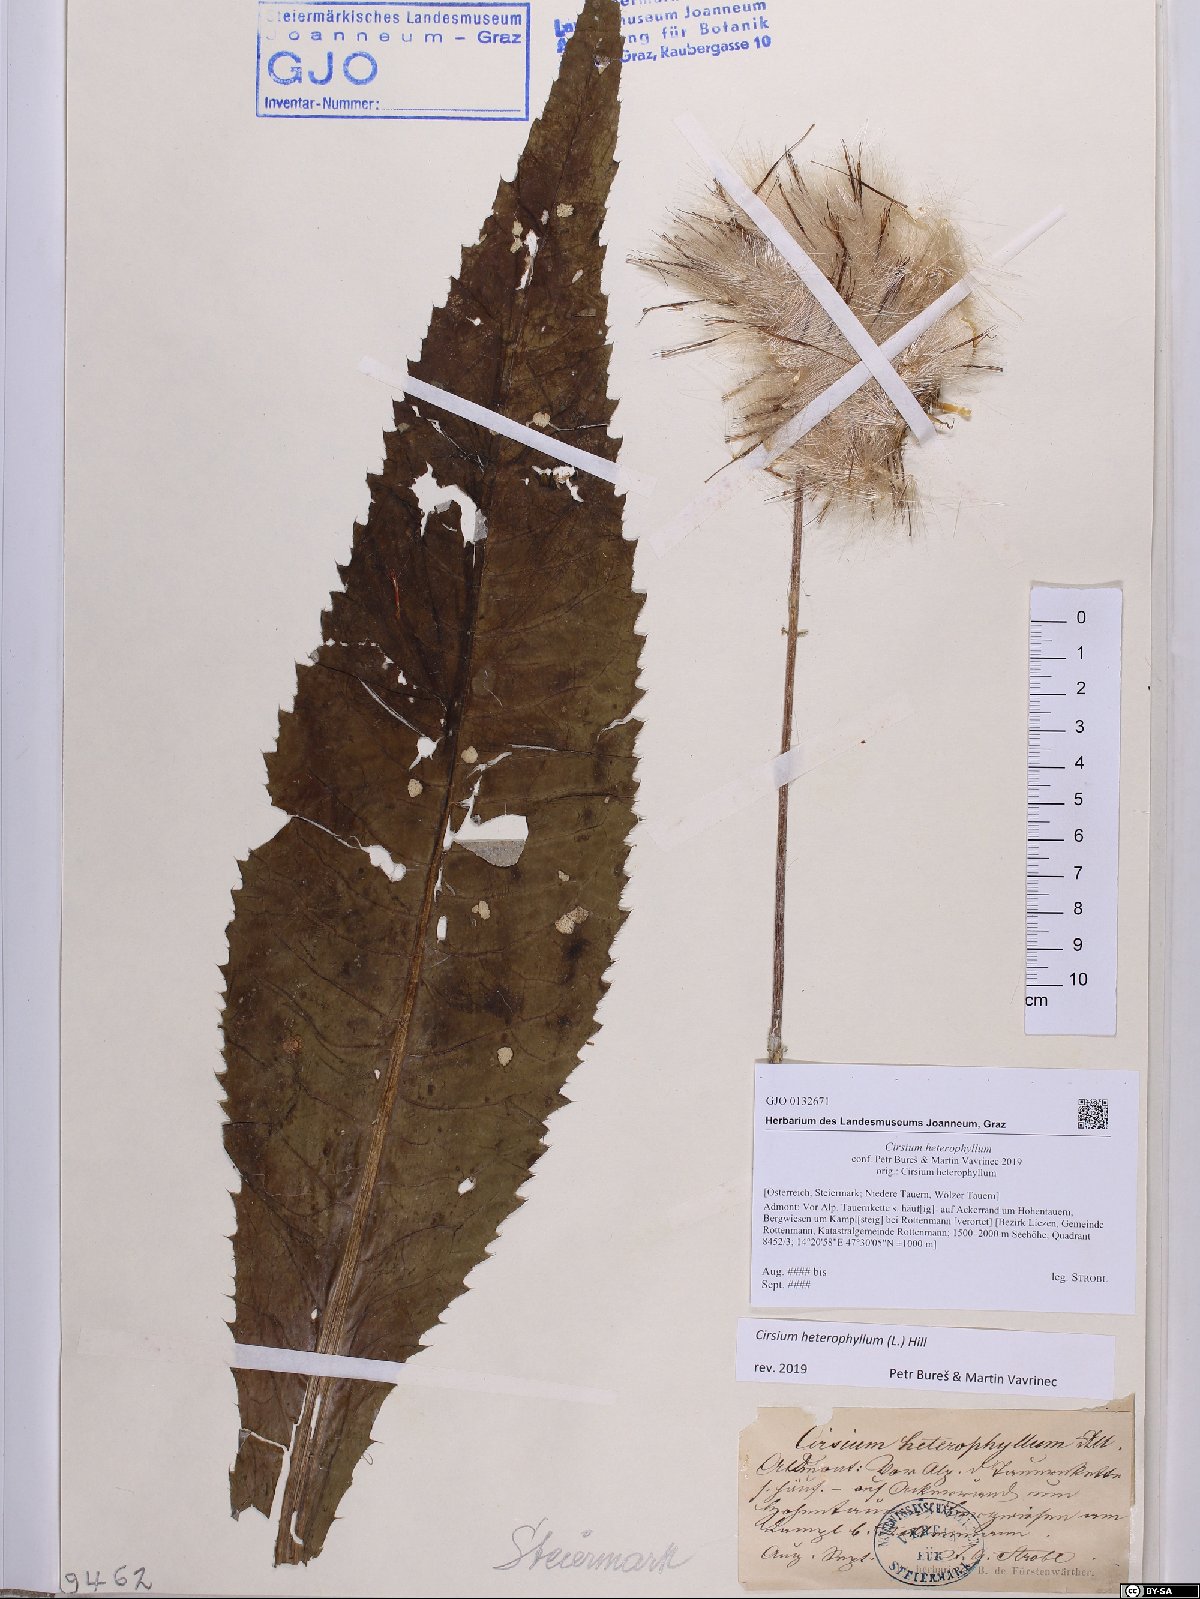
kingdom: Plantae
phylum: Tracheophyta
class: Magnoliopsida
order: Asterales
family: Asteraceae
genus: Cirsium
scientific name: Cirsium heterophyllum
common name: Melancholy thistle
